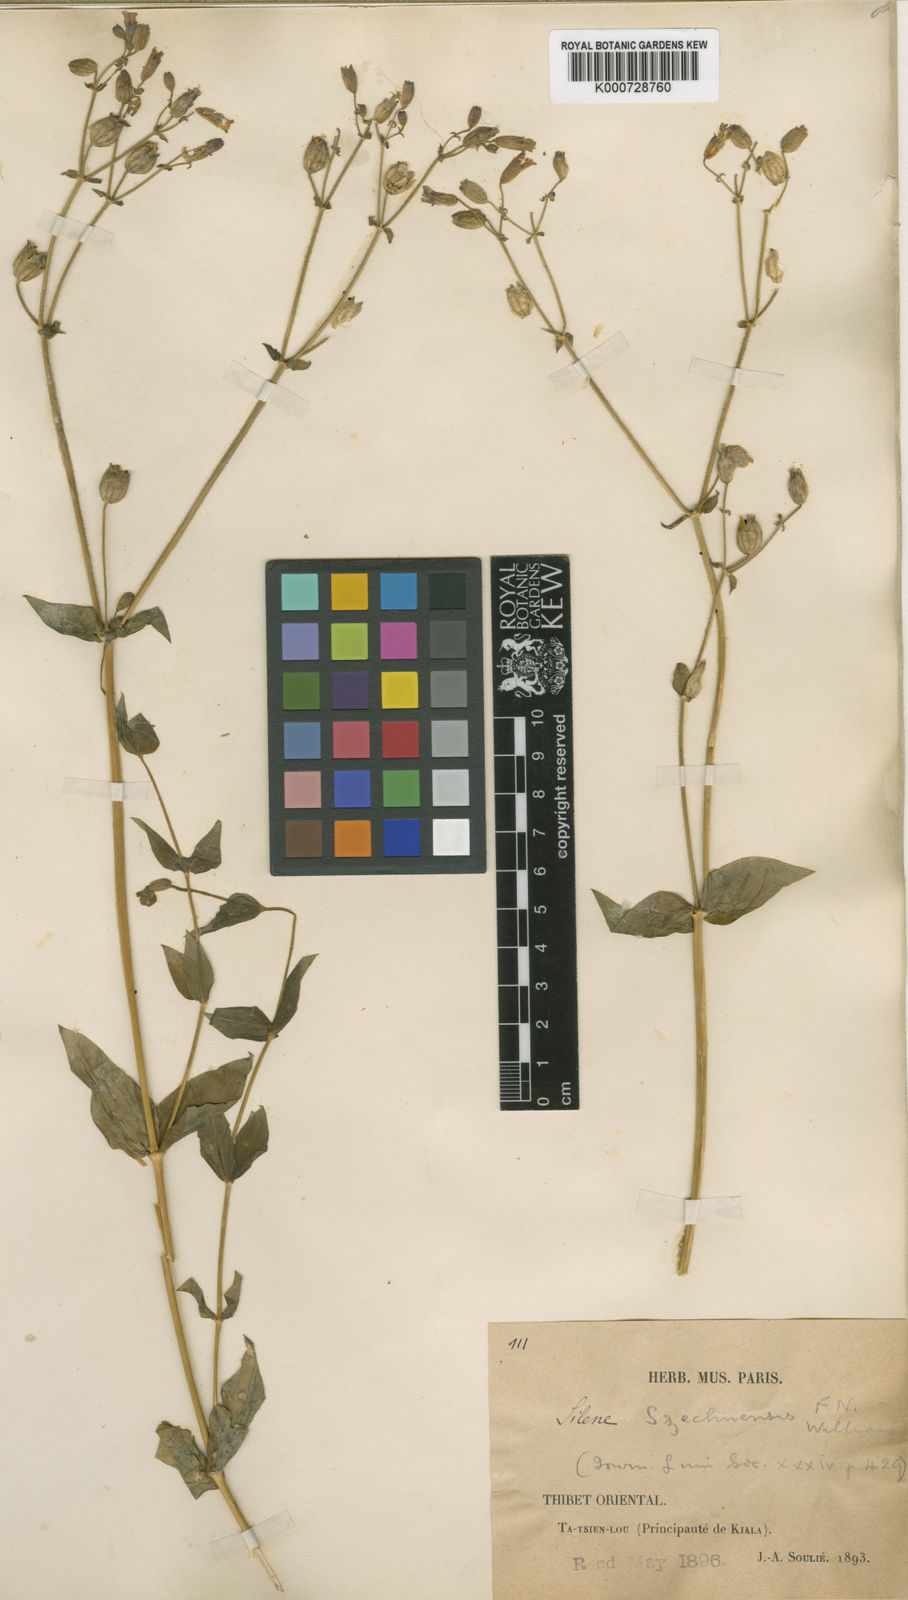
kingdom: Plantae
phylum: Tracheophyta
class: Magnoliopsida
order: Caryophyllales
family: Caryophyllaceae
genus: Silene
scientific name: Silene asclepiadea
